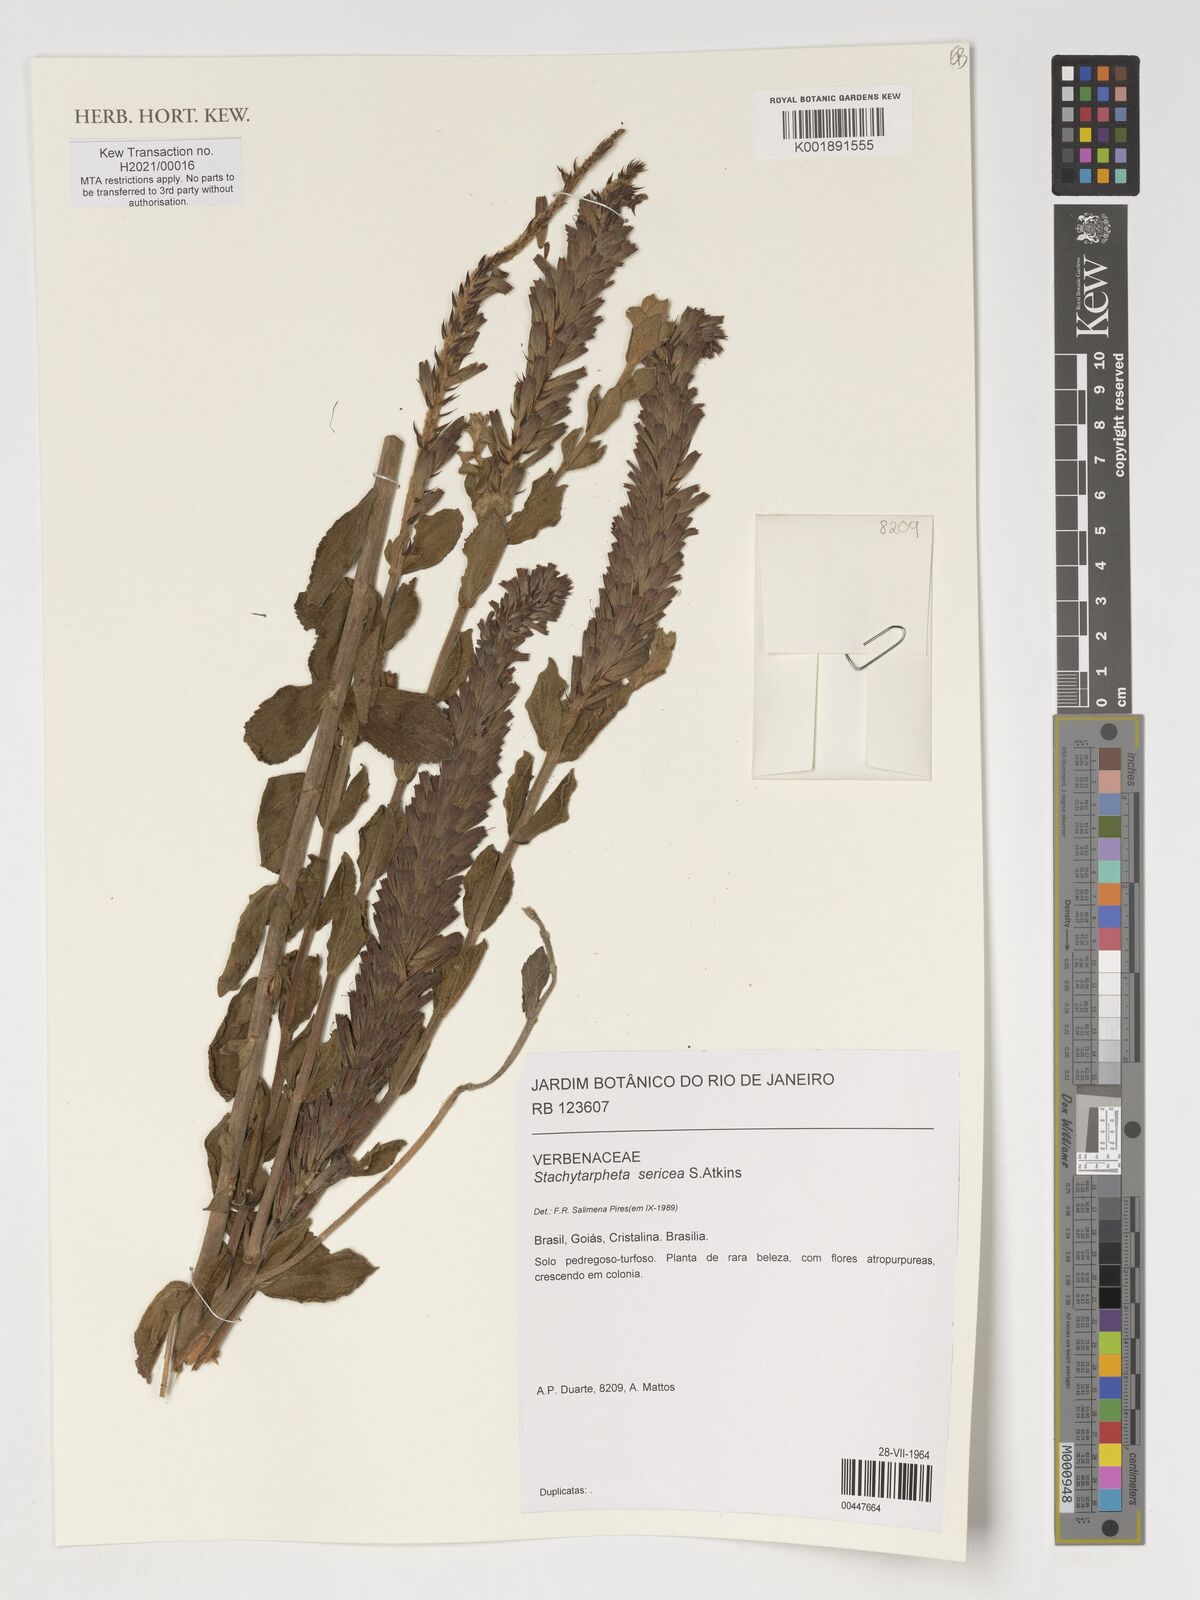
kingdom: Plantae
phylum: Tracheophyta
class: Magnoliopsida
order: Lamiales
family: Verbenaceae
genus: Stachytarpheta
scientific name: Stachytarpheta sericea
